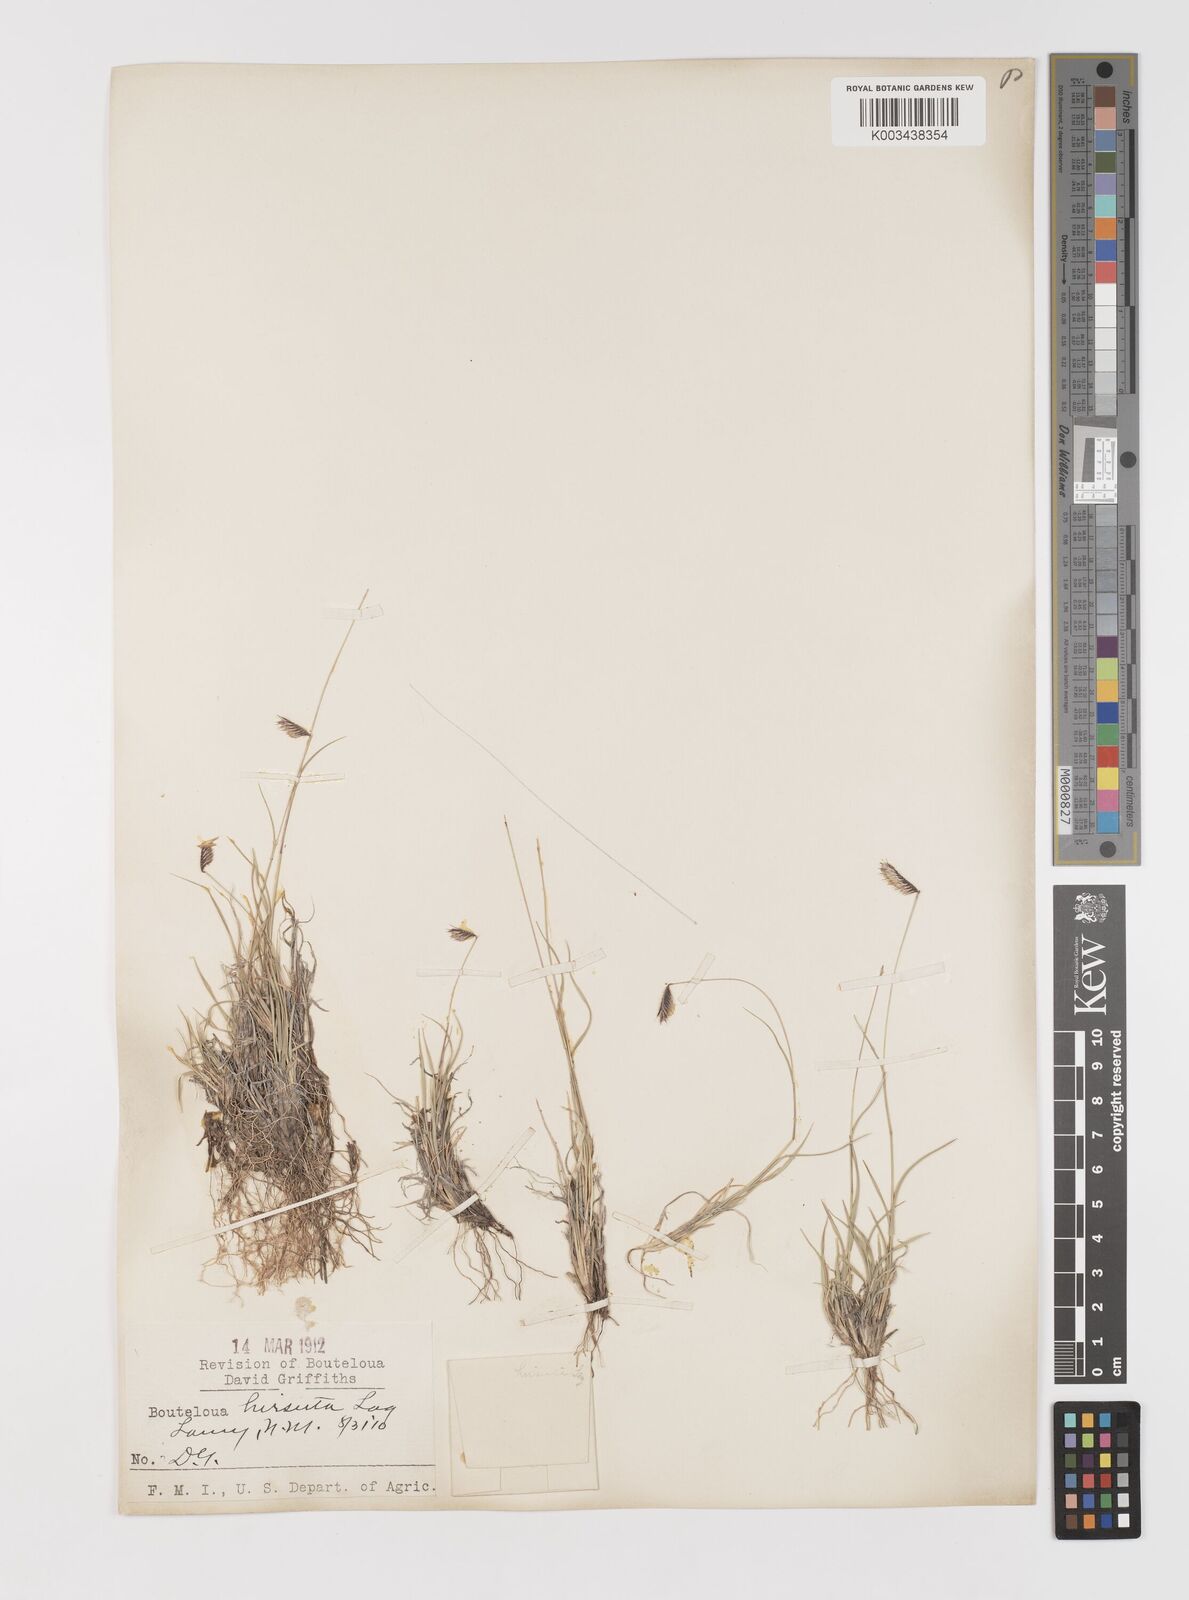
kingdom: Plantae
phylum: Tracheophyta
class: Liliopsida
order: Poales
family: Poaceae
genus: Bouteloua
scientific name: Bouteloua hirsuta
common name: Hairy grama
